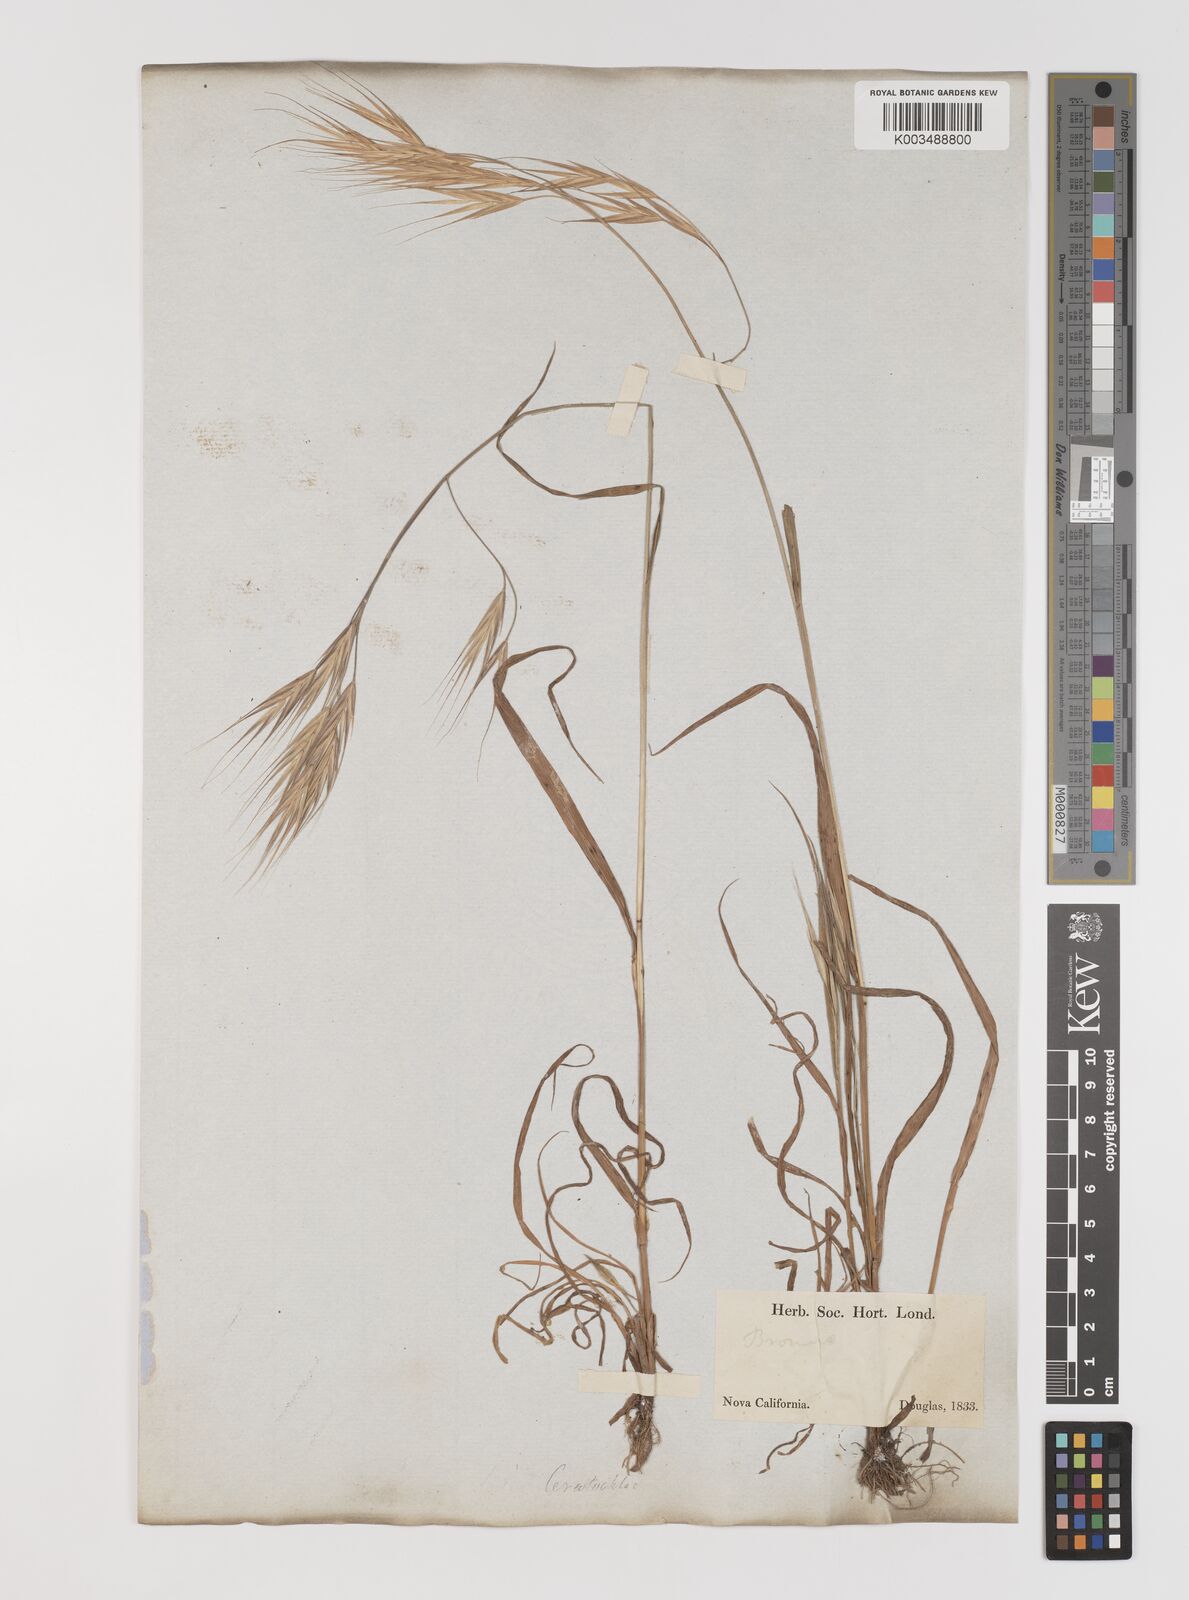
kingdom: Plantae
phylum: Tracheophyta
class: Liliopsida
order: Poales
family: Poaceae
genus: Bromus
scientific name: Bromus
